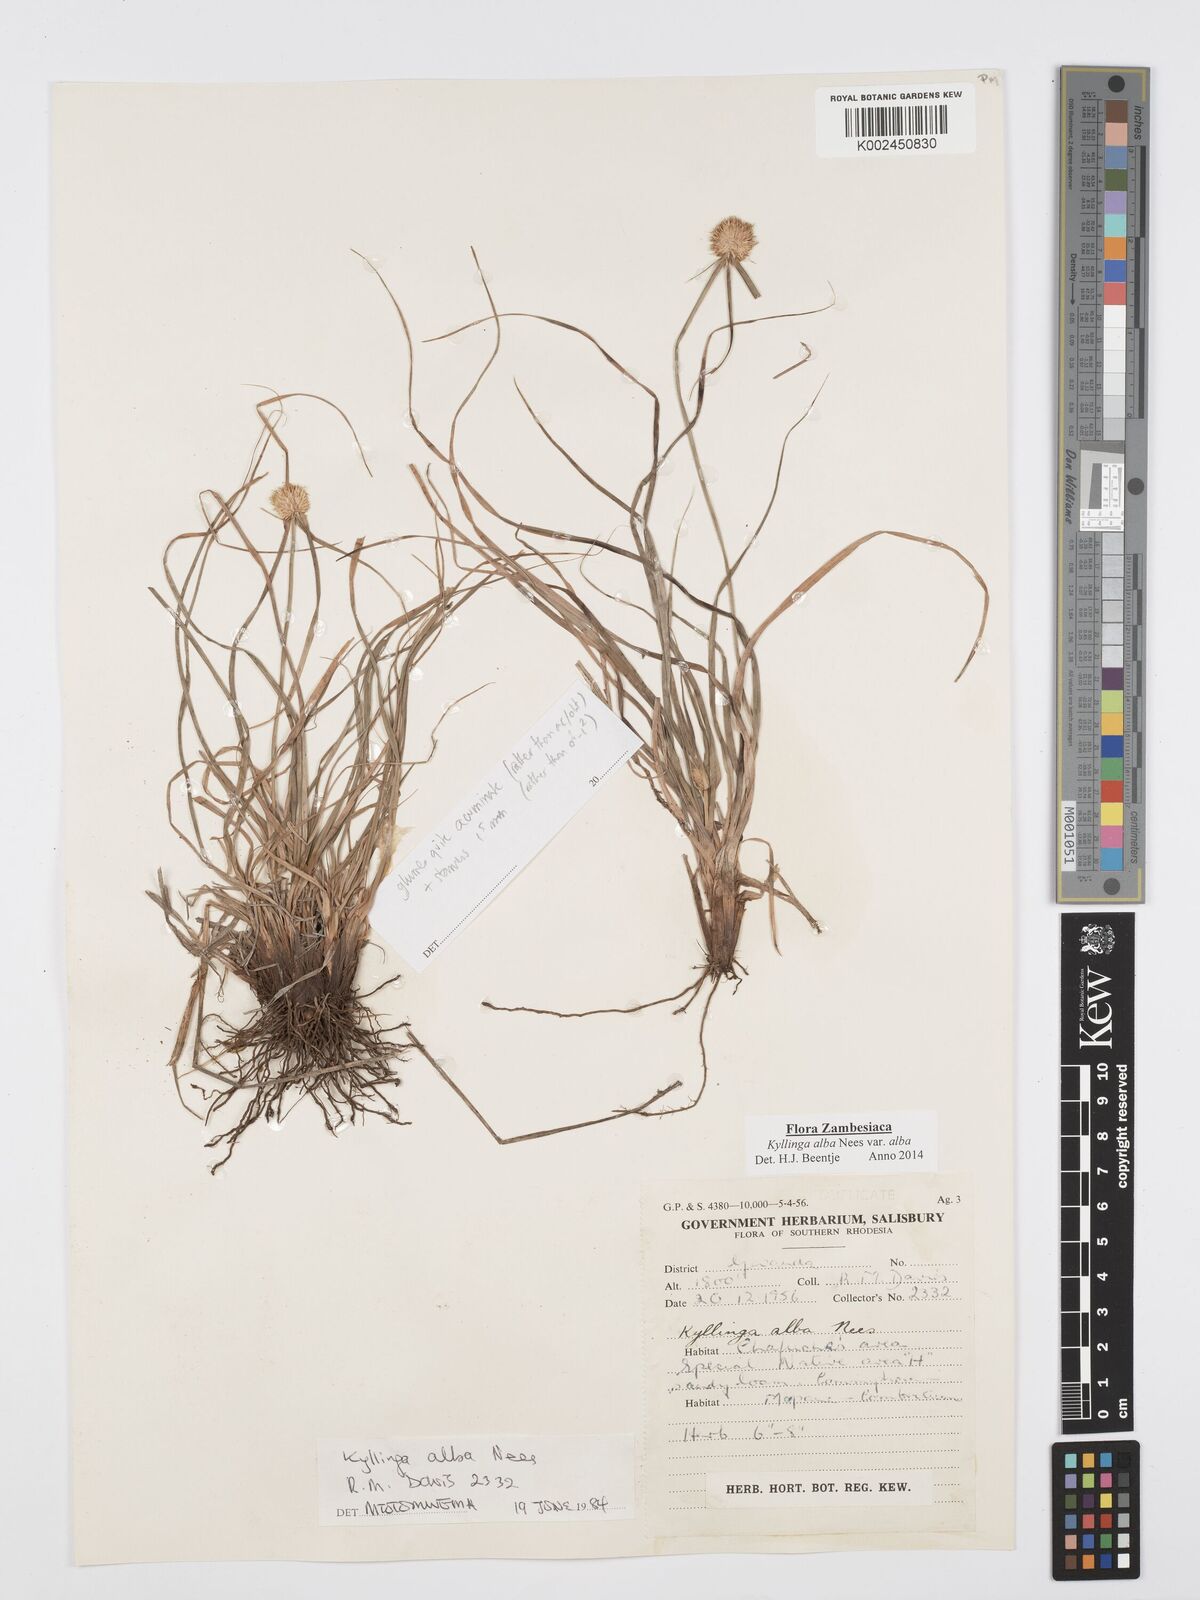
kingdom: Plantae
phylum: Tracheophyta
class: Liliopsida
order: Poales
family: Cyperaceae
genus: Cyperus
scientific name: Cyperus
